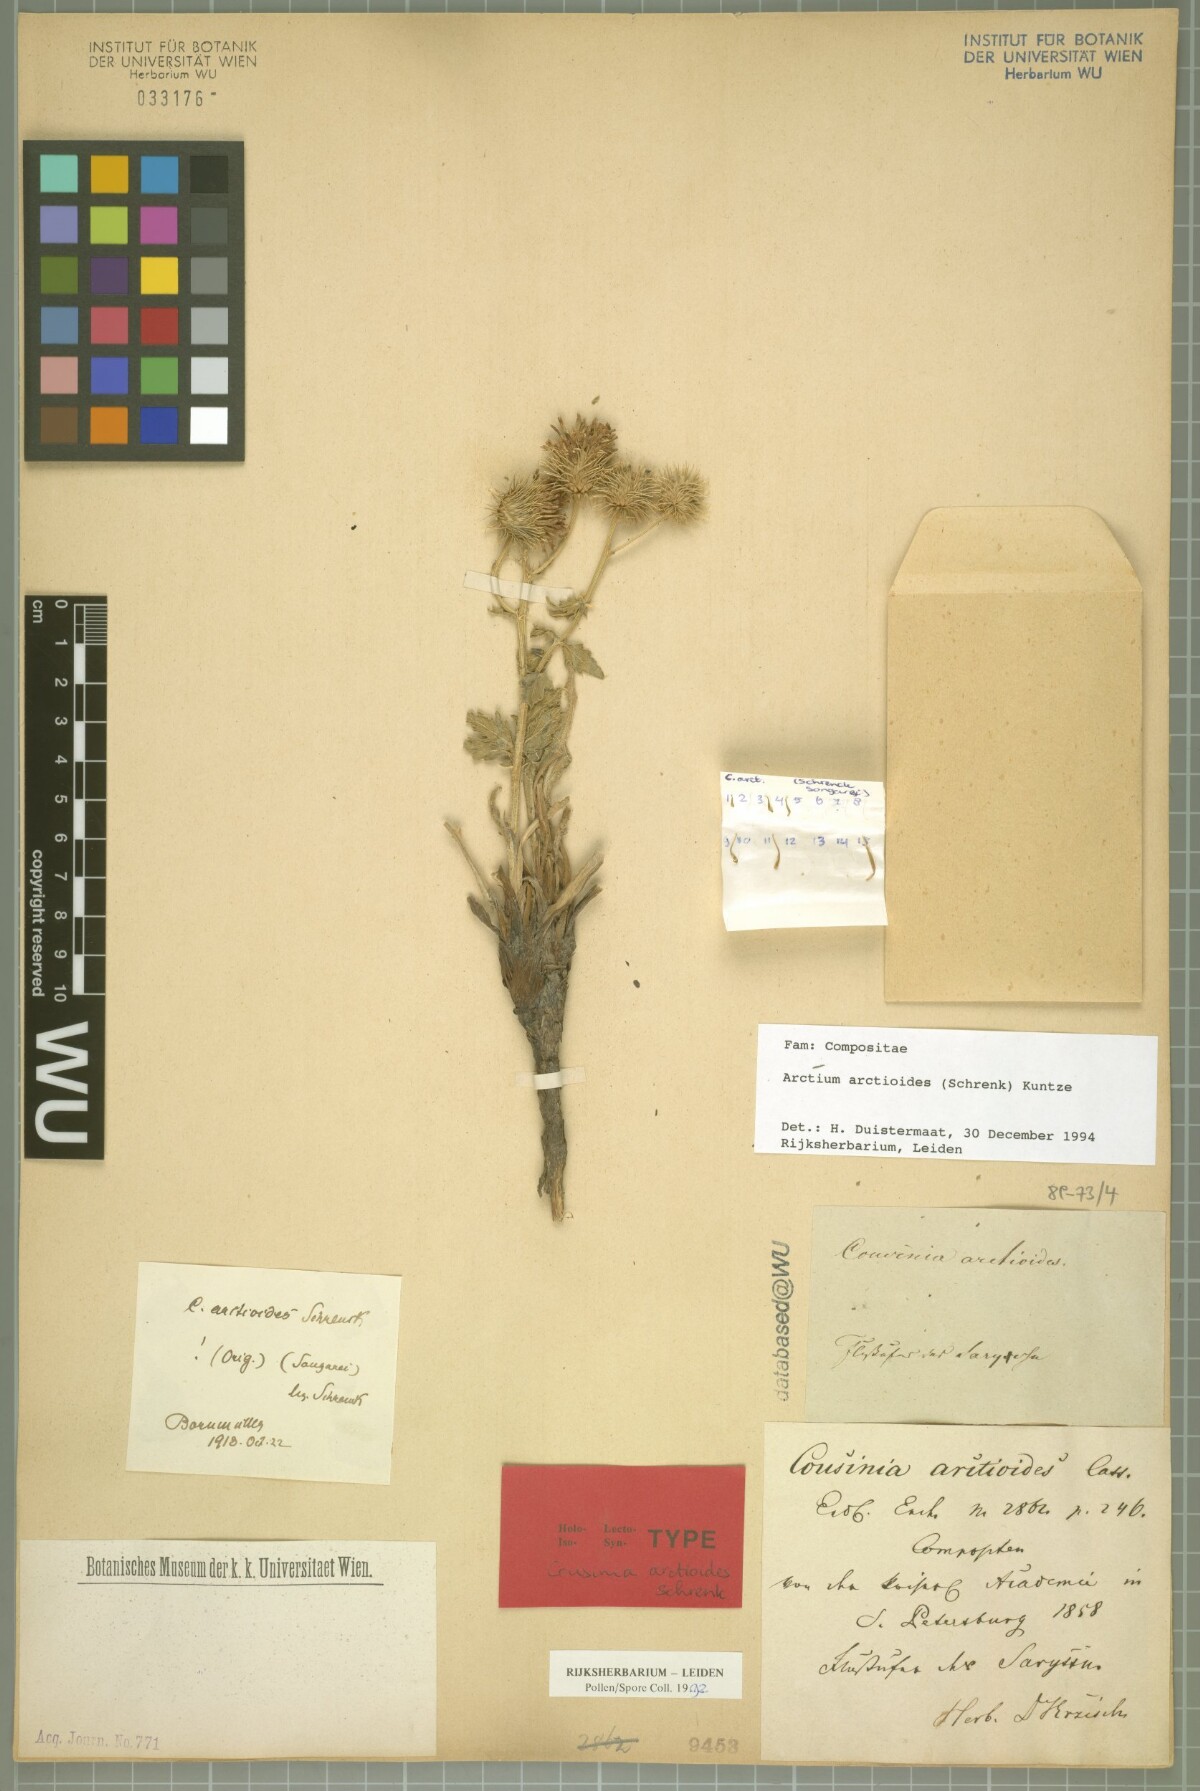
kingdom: Plantae
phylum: Tracheophyta
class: Magnoliopsida
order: Asterales
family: Asteraceae
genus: Arctium
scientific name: Arctium arctioides
